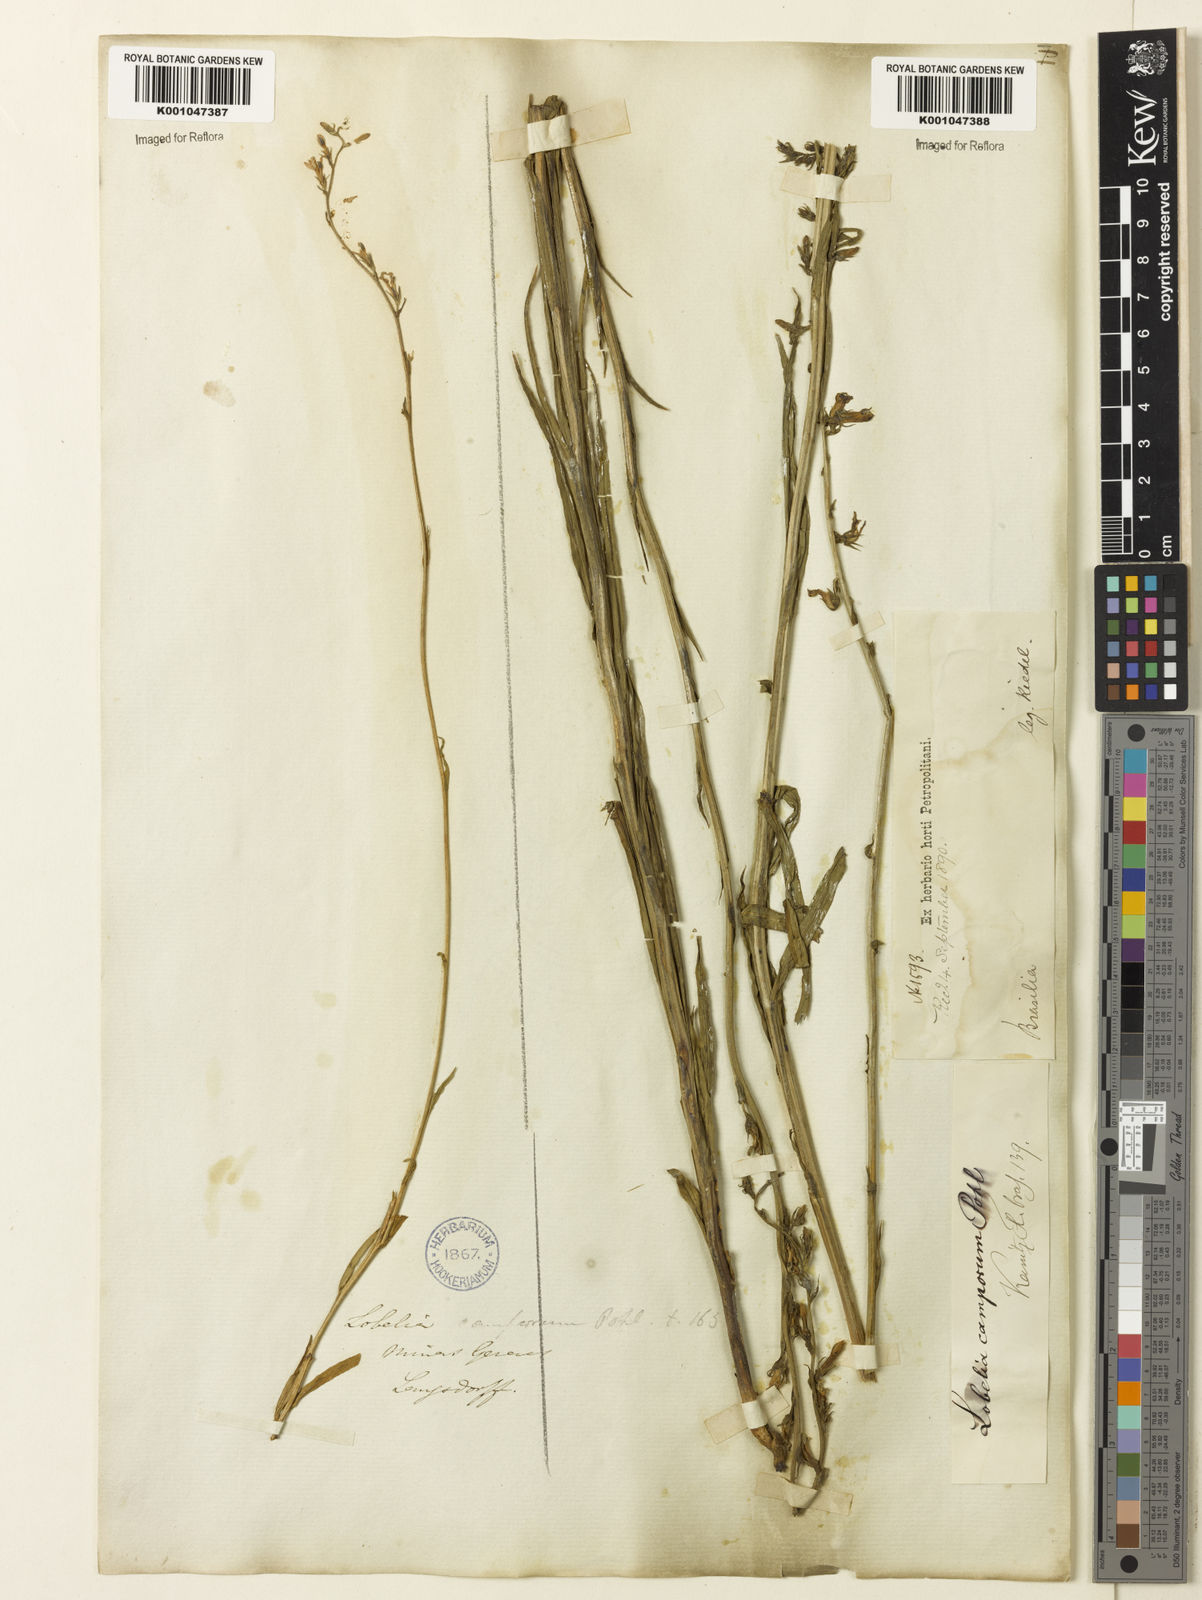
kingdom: Plantae
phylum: Tracheophyta
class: Magnoliopsida
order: Asterales
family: Campanulaceae
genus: Lobelia
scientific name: Lobelia camporum
